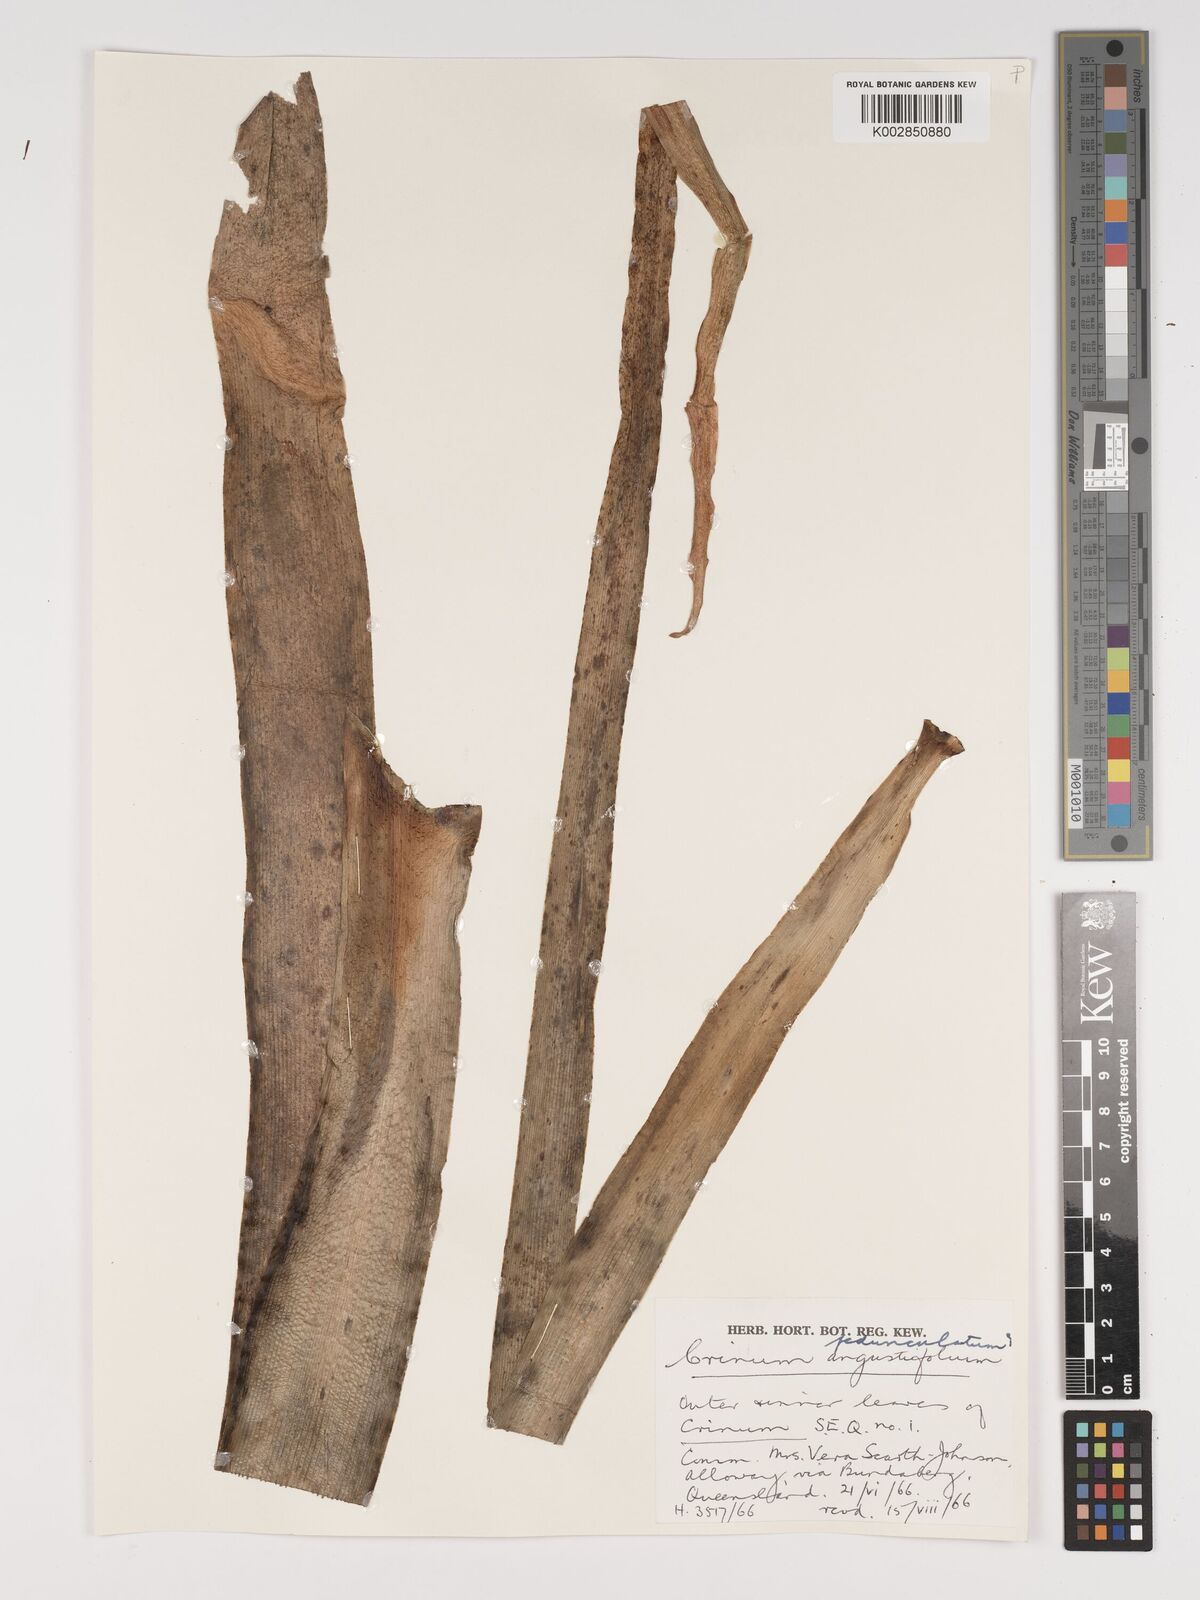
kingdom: Plantae
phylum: Tracheophyta
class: Liliopsida
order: Asparagales
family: Amaryllidaceae
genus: Crinum
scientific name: Crinum asiaticum
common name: Poisonbulb
